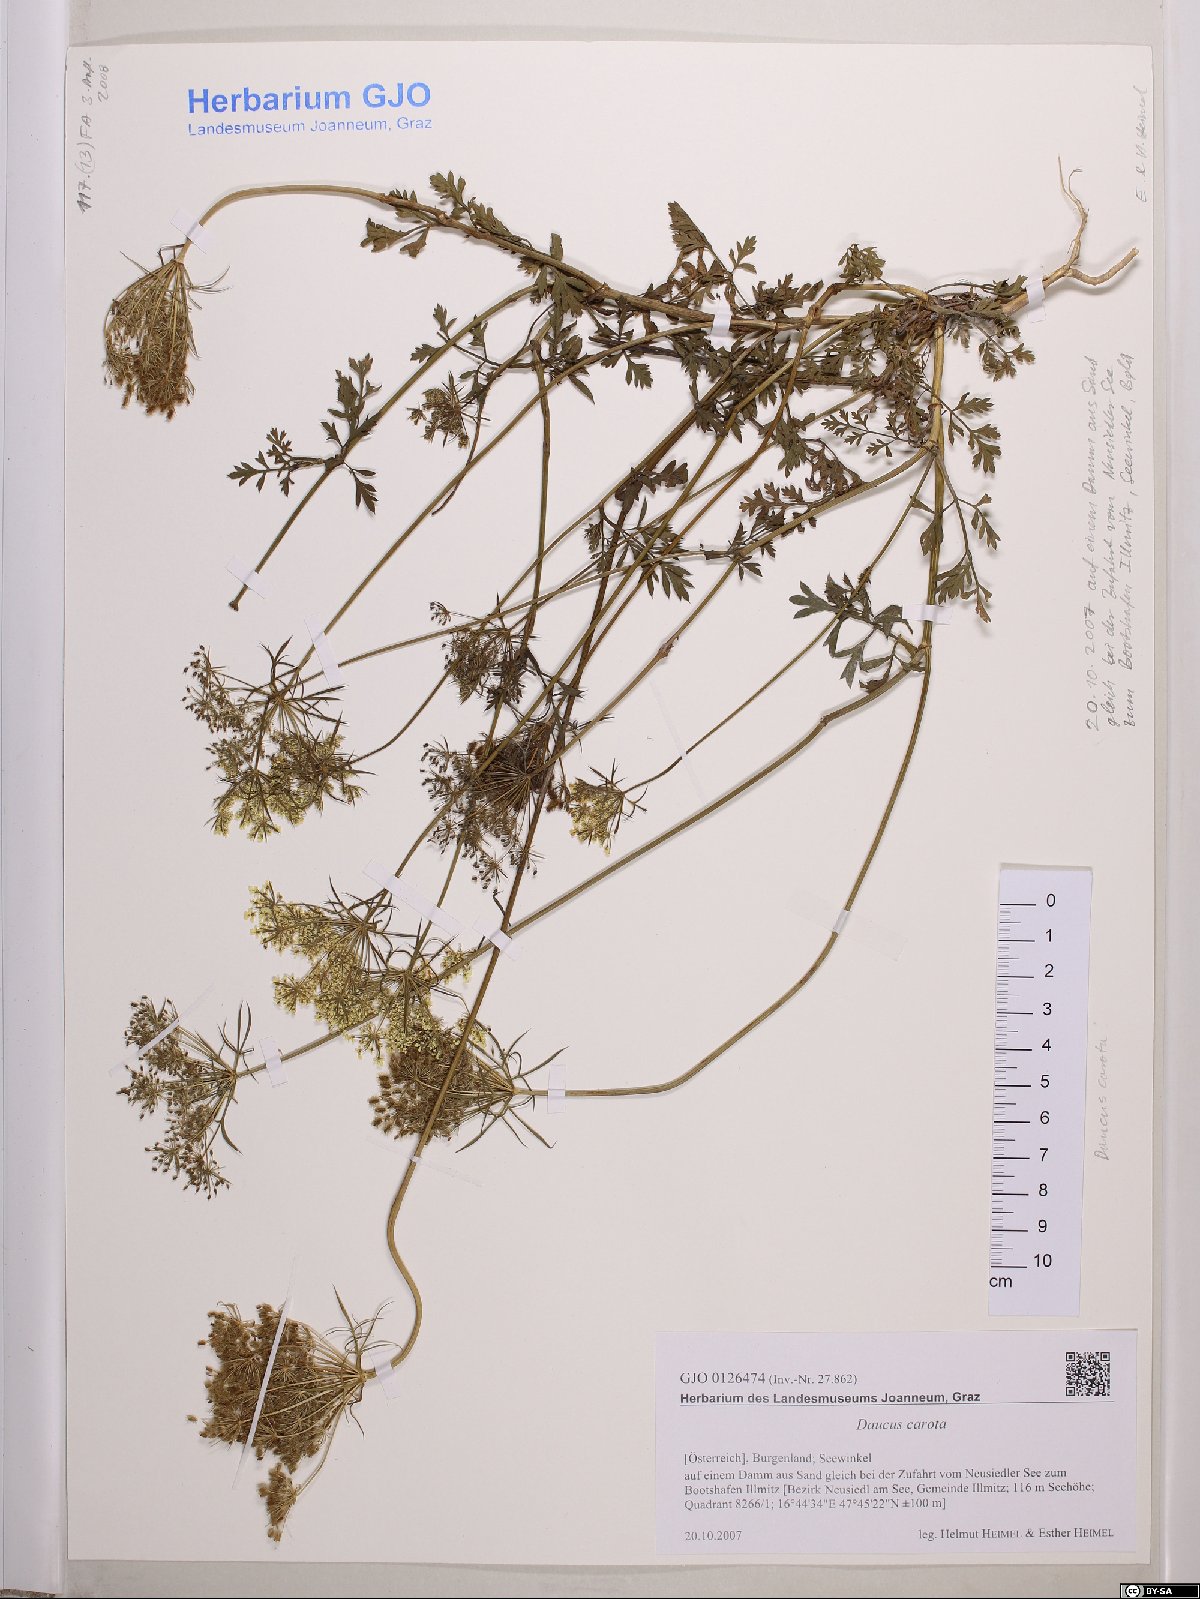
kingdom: Plantae
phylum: Tracheophyta
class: Magnoliopsida
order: Apiales
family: Apiaceae
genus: Daucus
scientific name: Daucus carota
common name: Wild carrot
